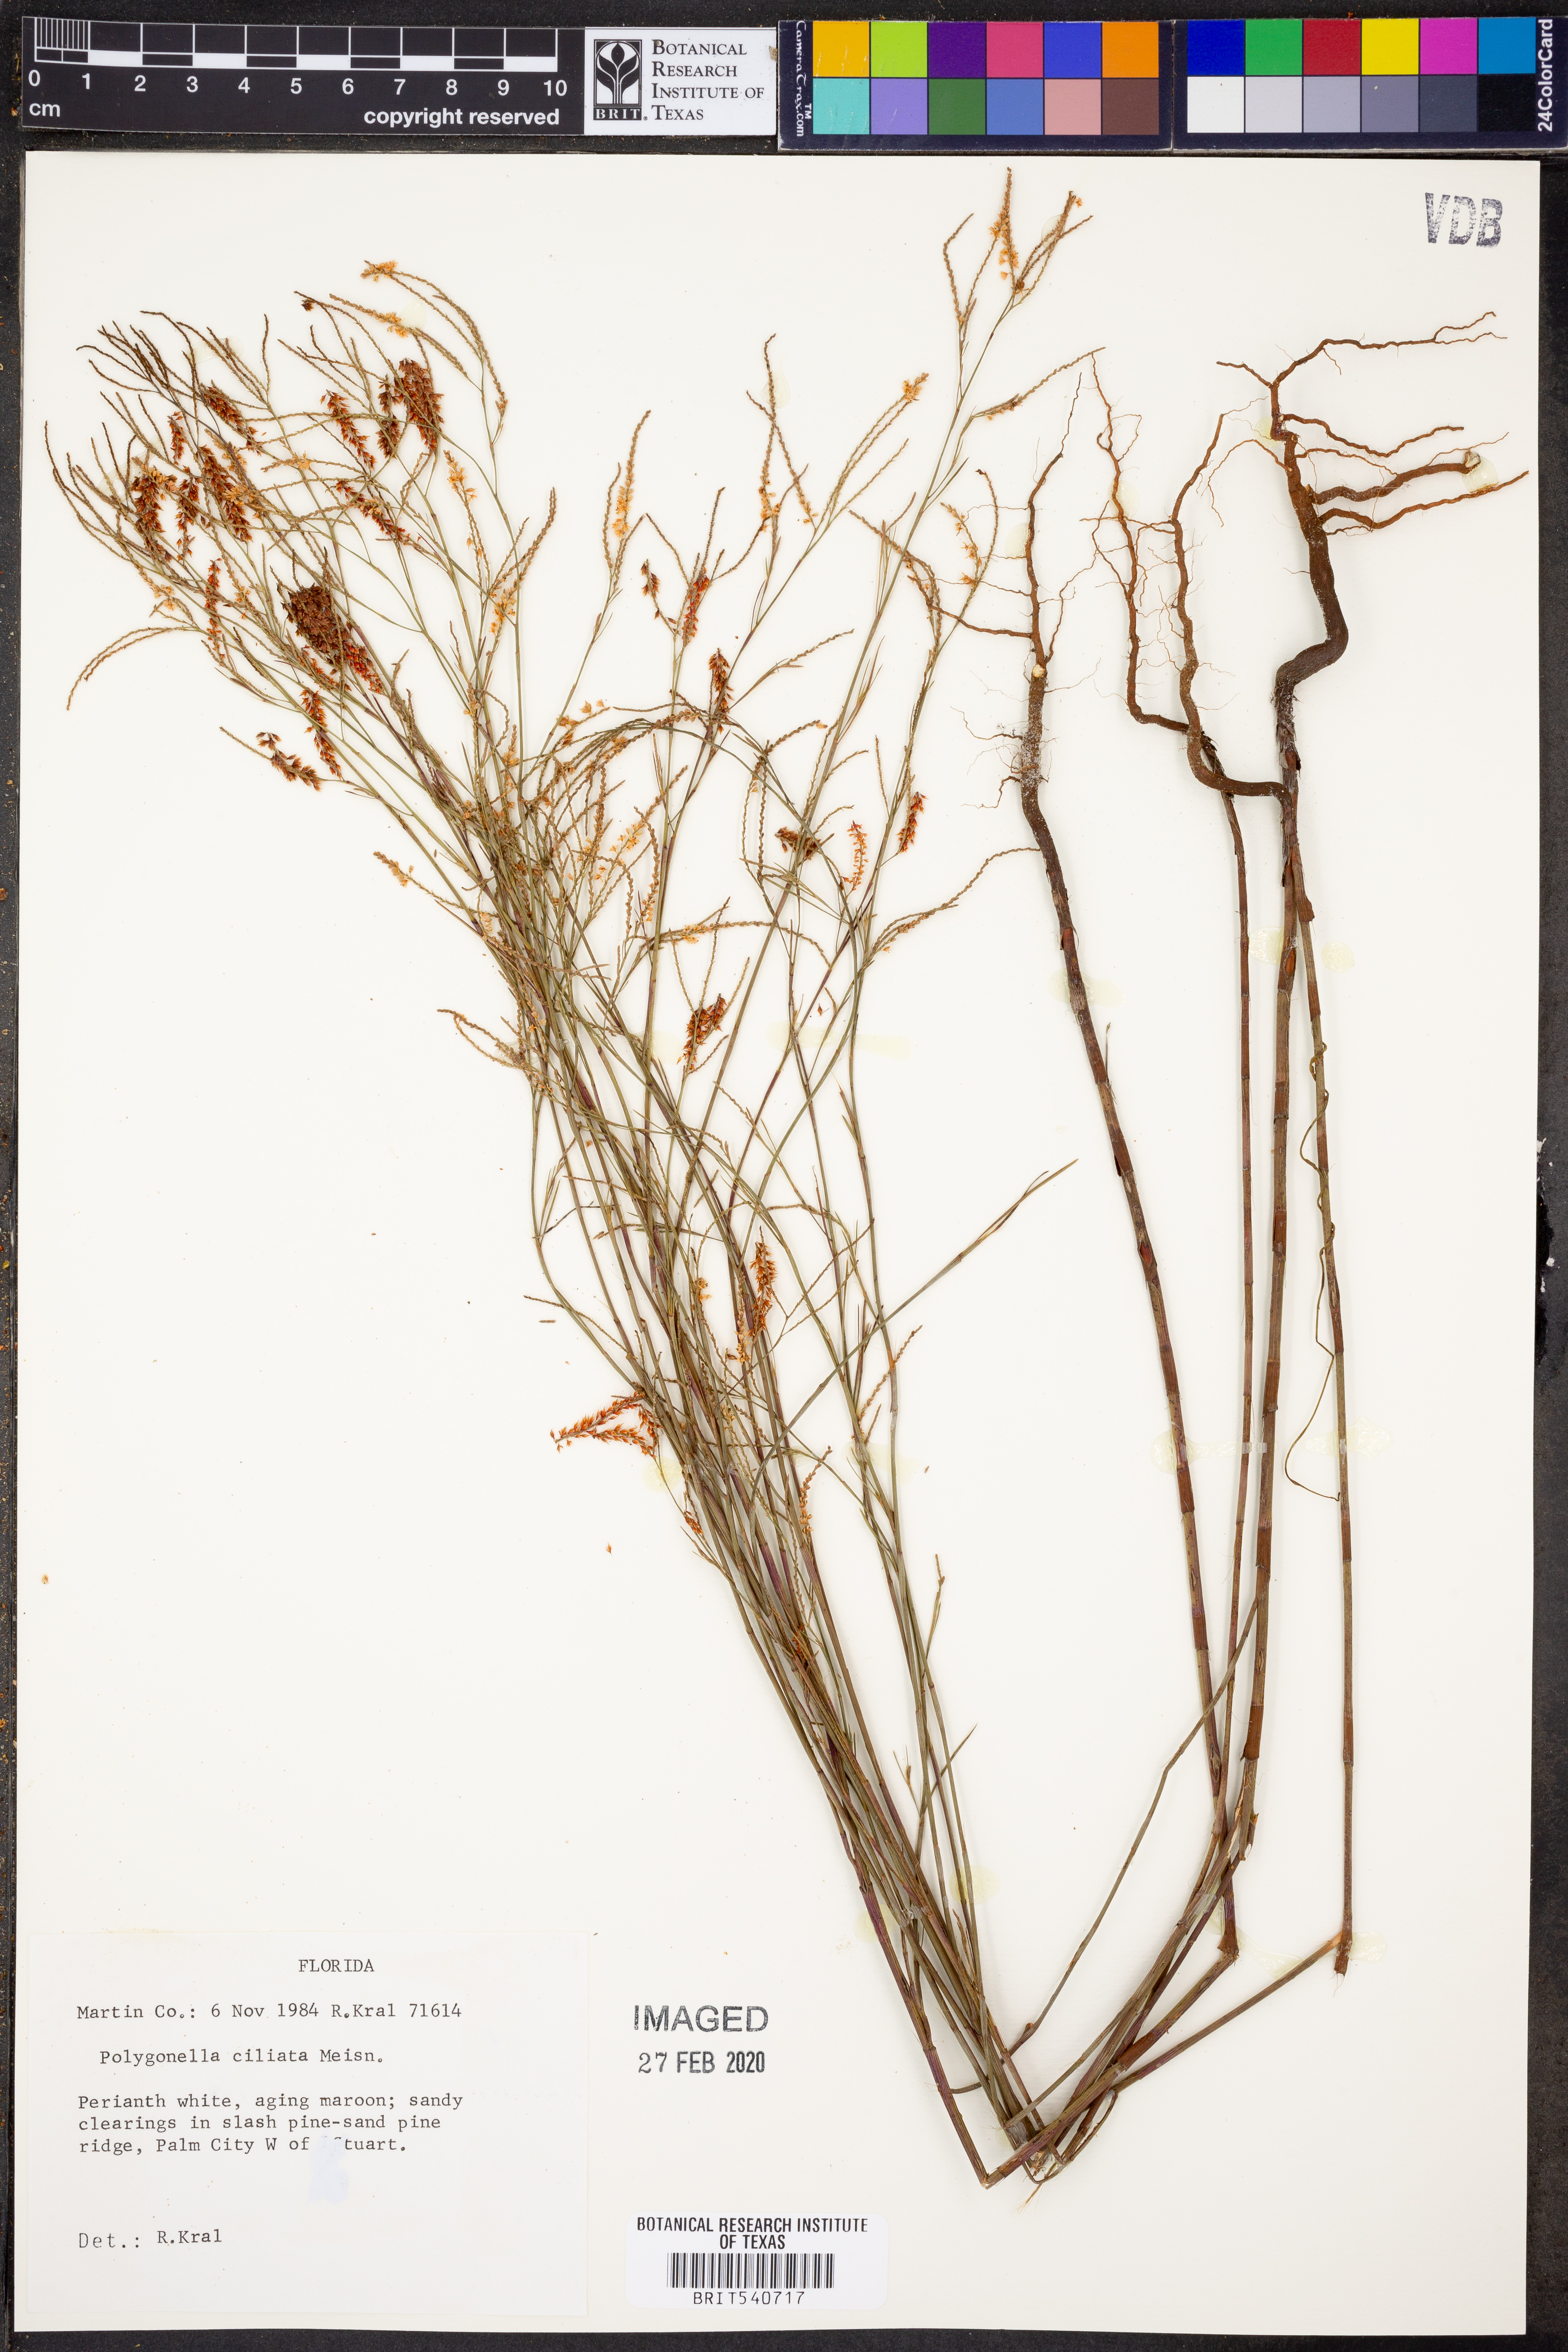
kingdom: Plantae
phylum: Tracheophyta
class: Magnoliopsida
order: Caryophyllales
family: Polygonaceae
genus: Polygonella
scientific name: Polygonella ciliata
